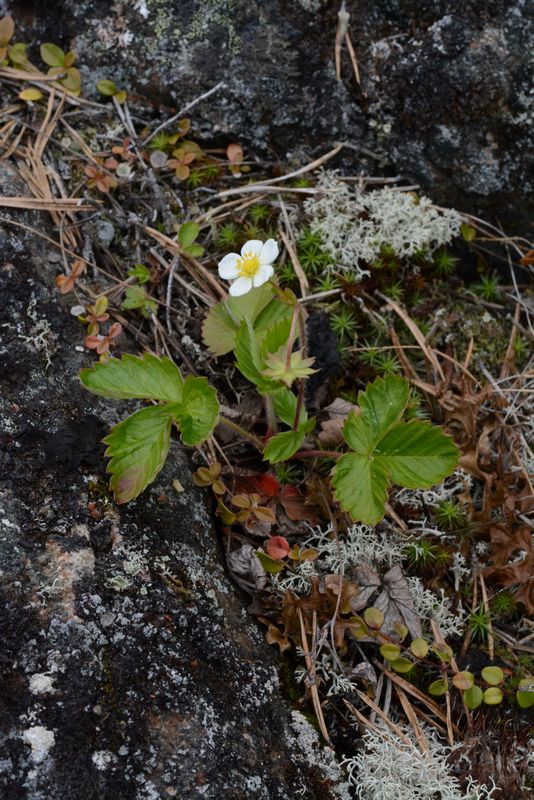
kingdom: Plantae
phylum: Tracheophyta
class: Magnoliopsida
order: Rosales
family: Rosaceae
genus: Fragaria
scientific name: Fragaria vesca
